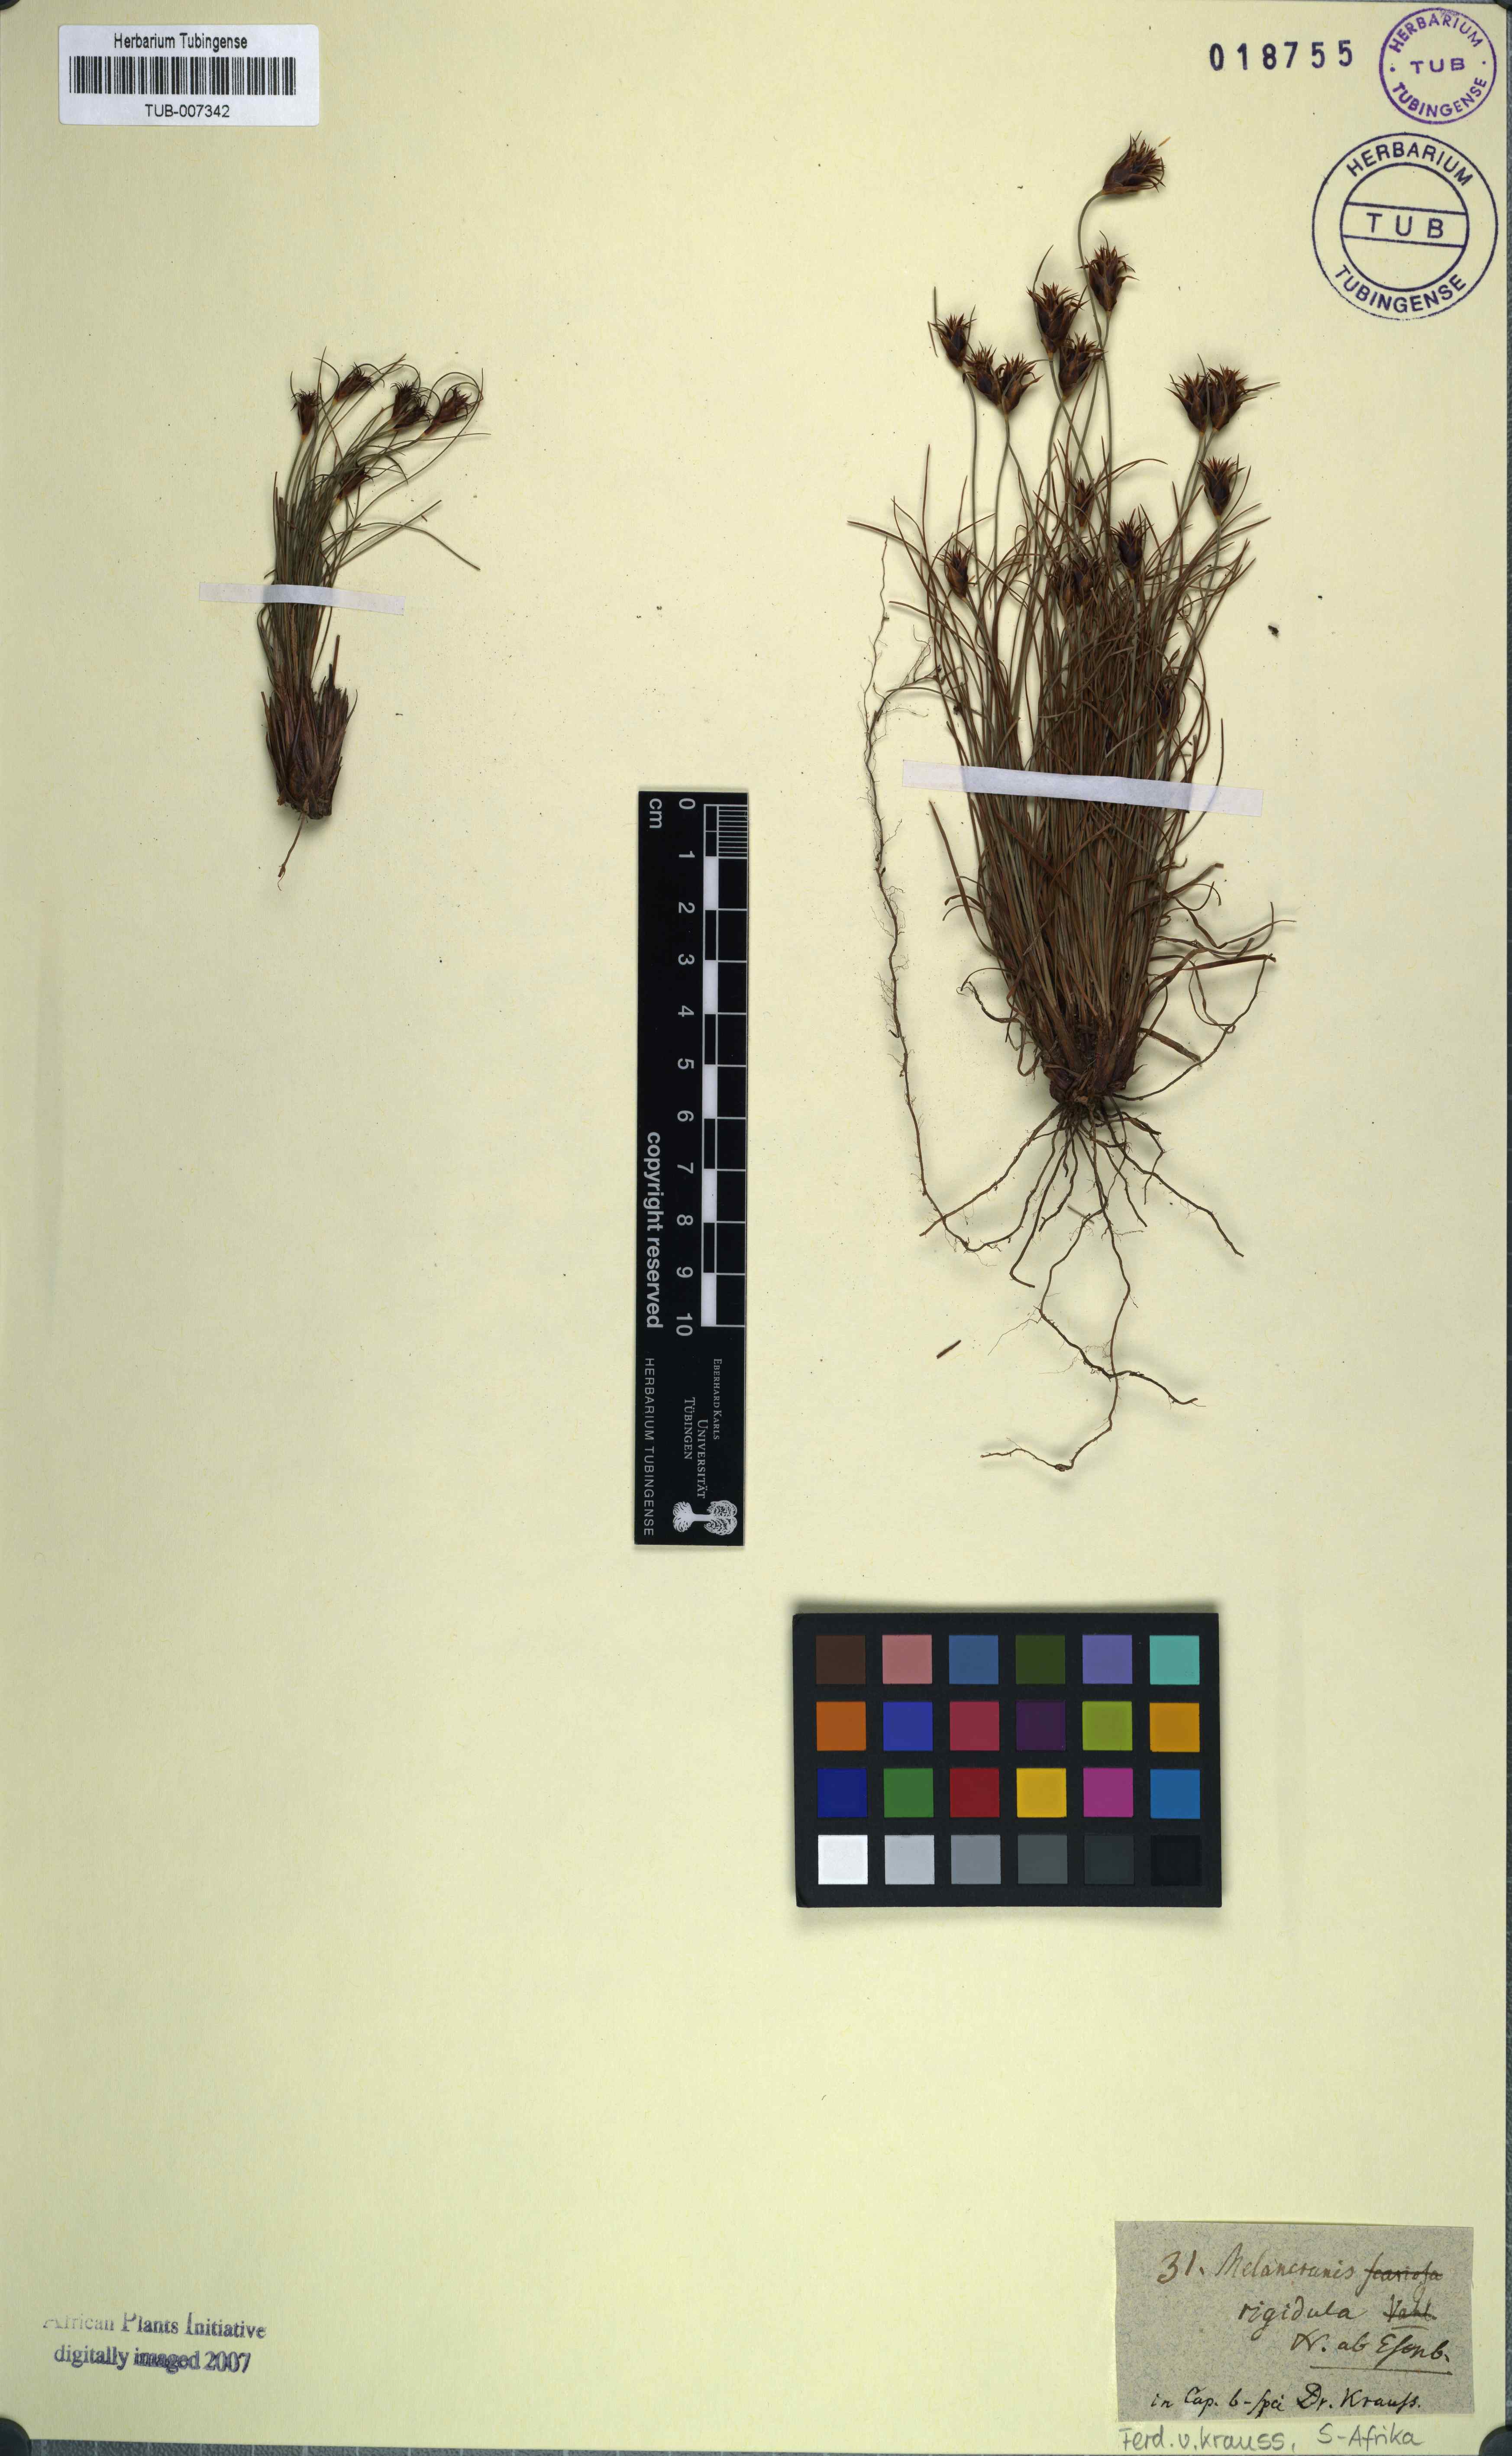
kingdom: Plantae
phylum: Tracheophyta
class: Liliopsida
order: Poales
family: Cyperaceae
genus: Ficinia
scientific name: Ficinia nigrescens
